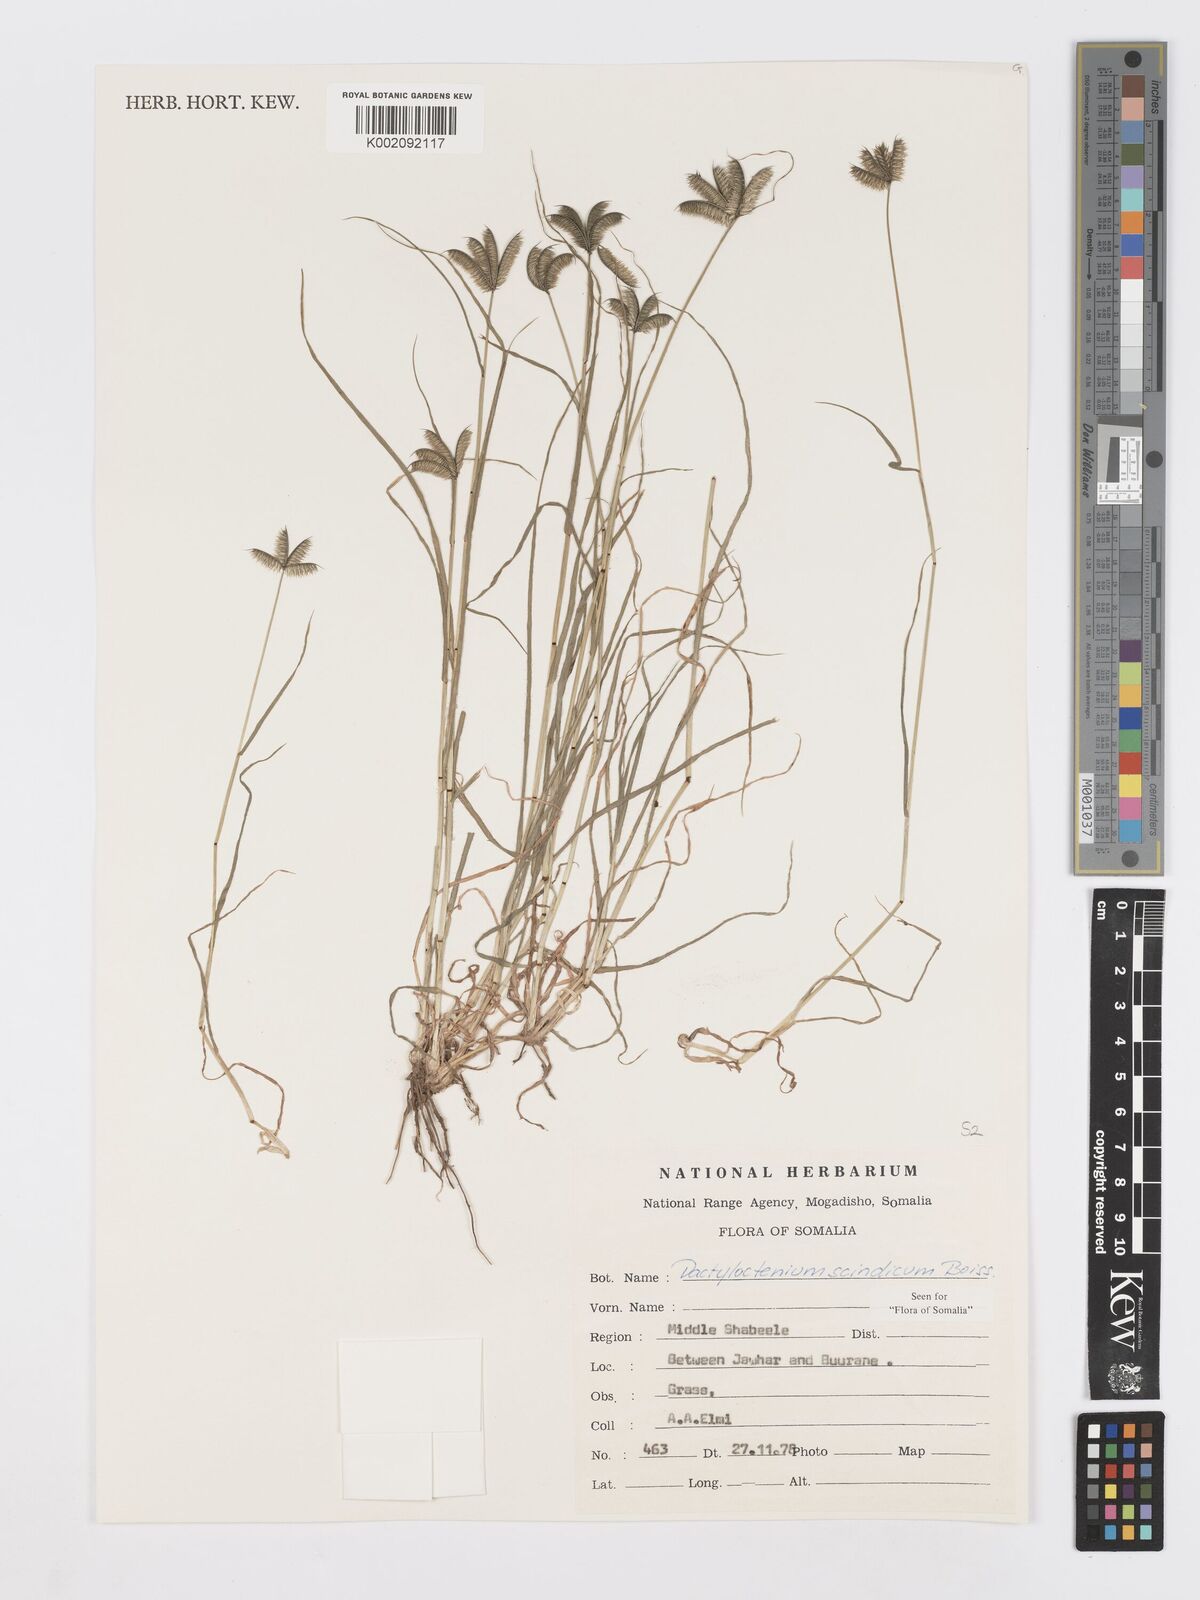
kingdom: Plantae
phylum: Tracheophyta
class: Liliopsida
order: Poales
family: Poaceae
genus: Dactyloctenium
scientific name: Dactyloctenium scindicum
